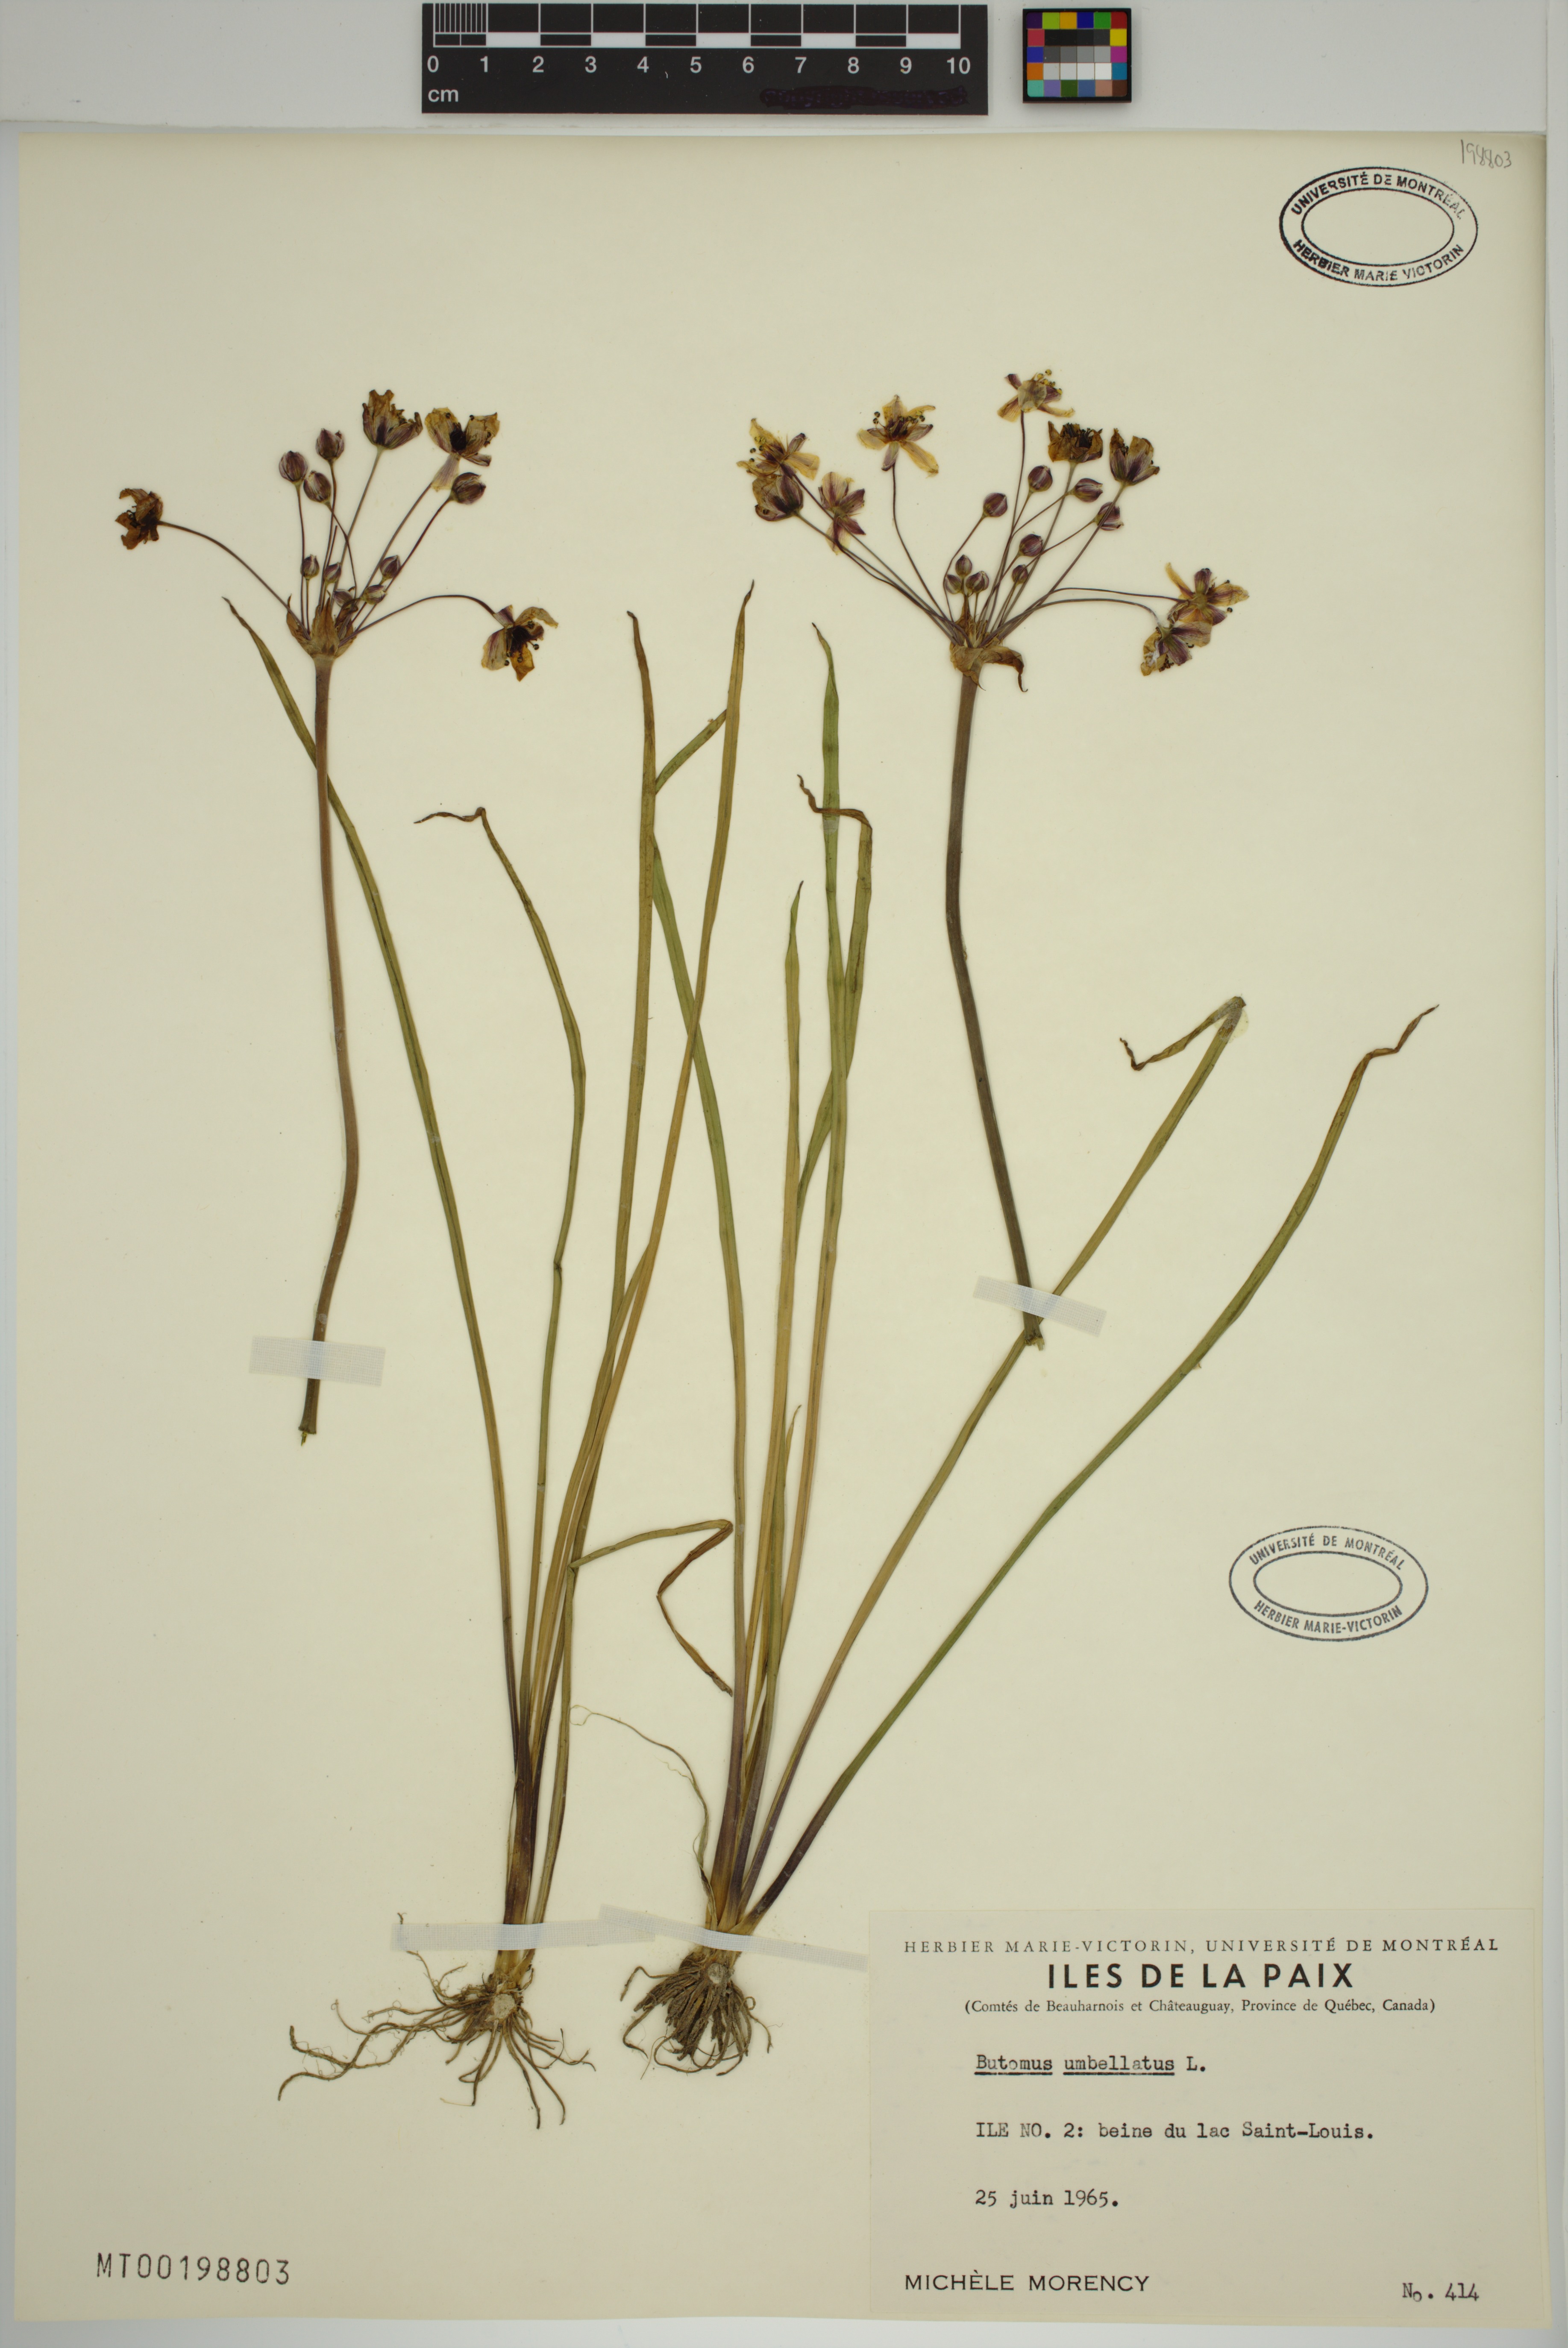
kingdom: Plantae
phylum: Tracheophyta
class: Liliopsida
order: Alismatales
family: Butomaceae
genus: Butomus
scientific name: Butomus umbellatus
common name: Flowering-rush
